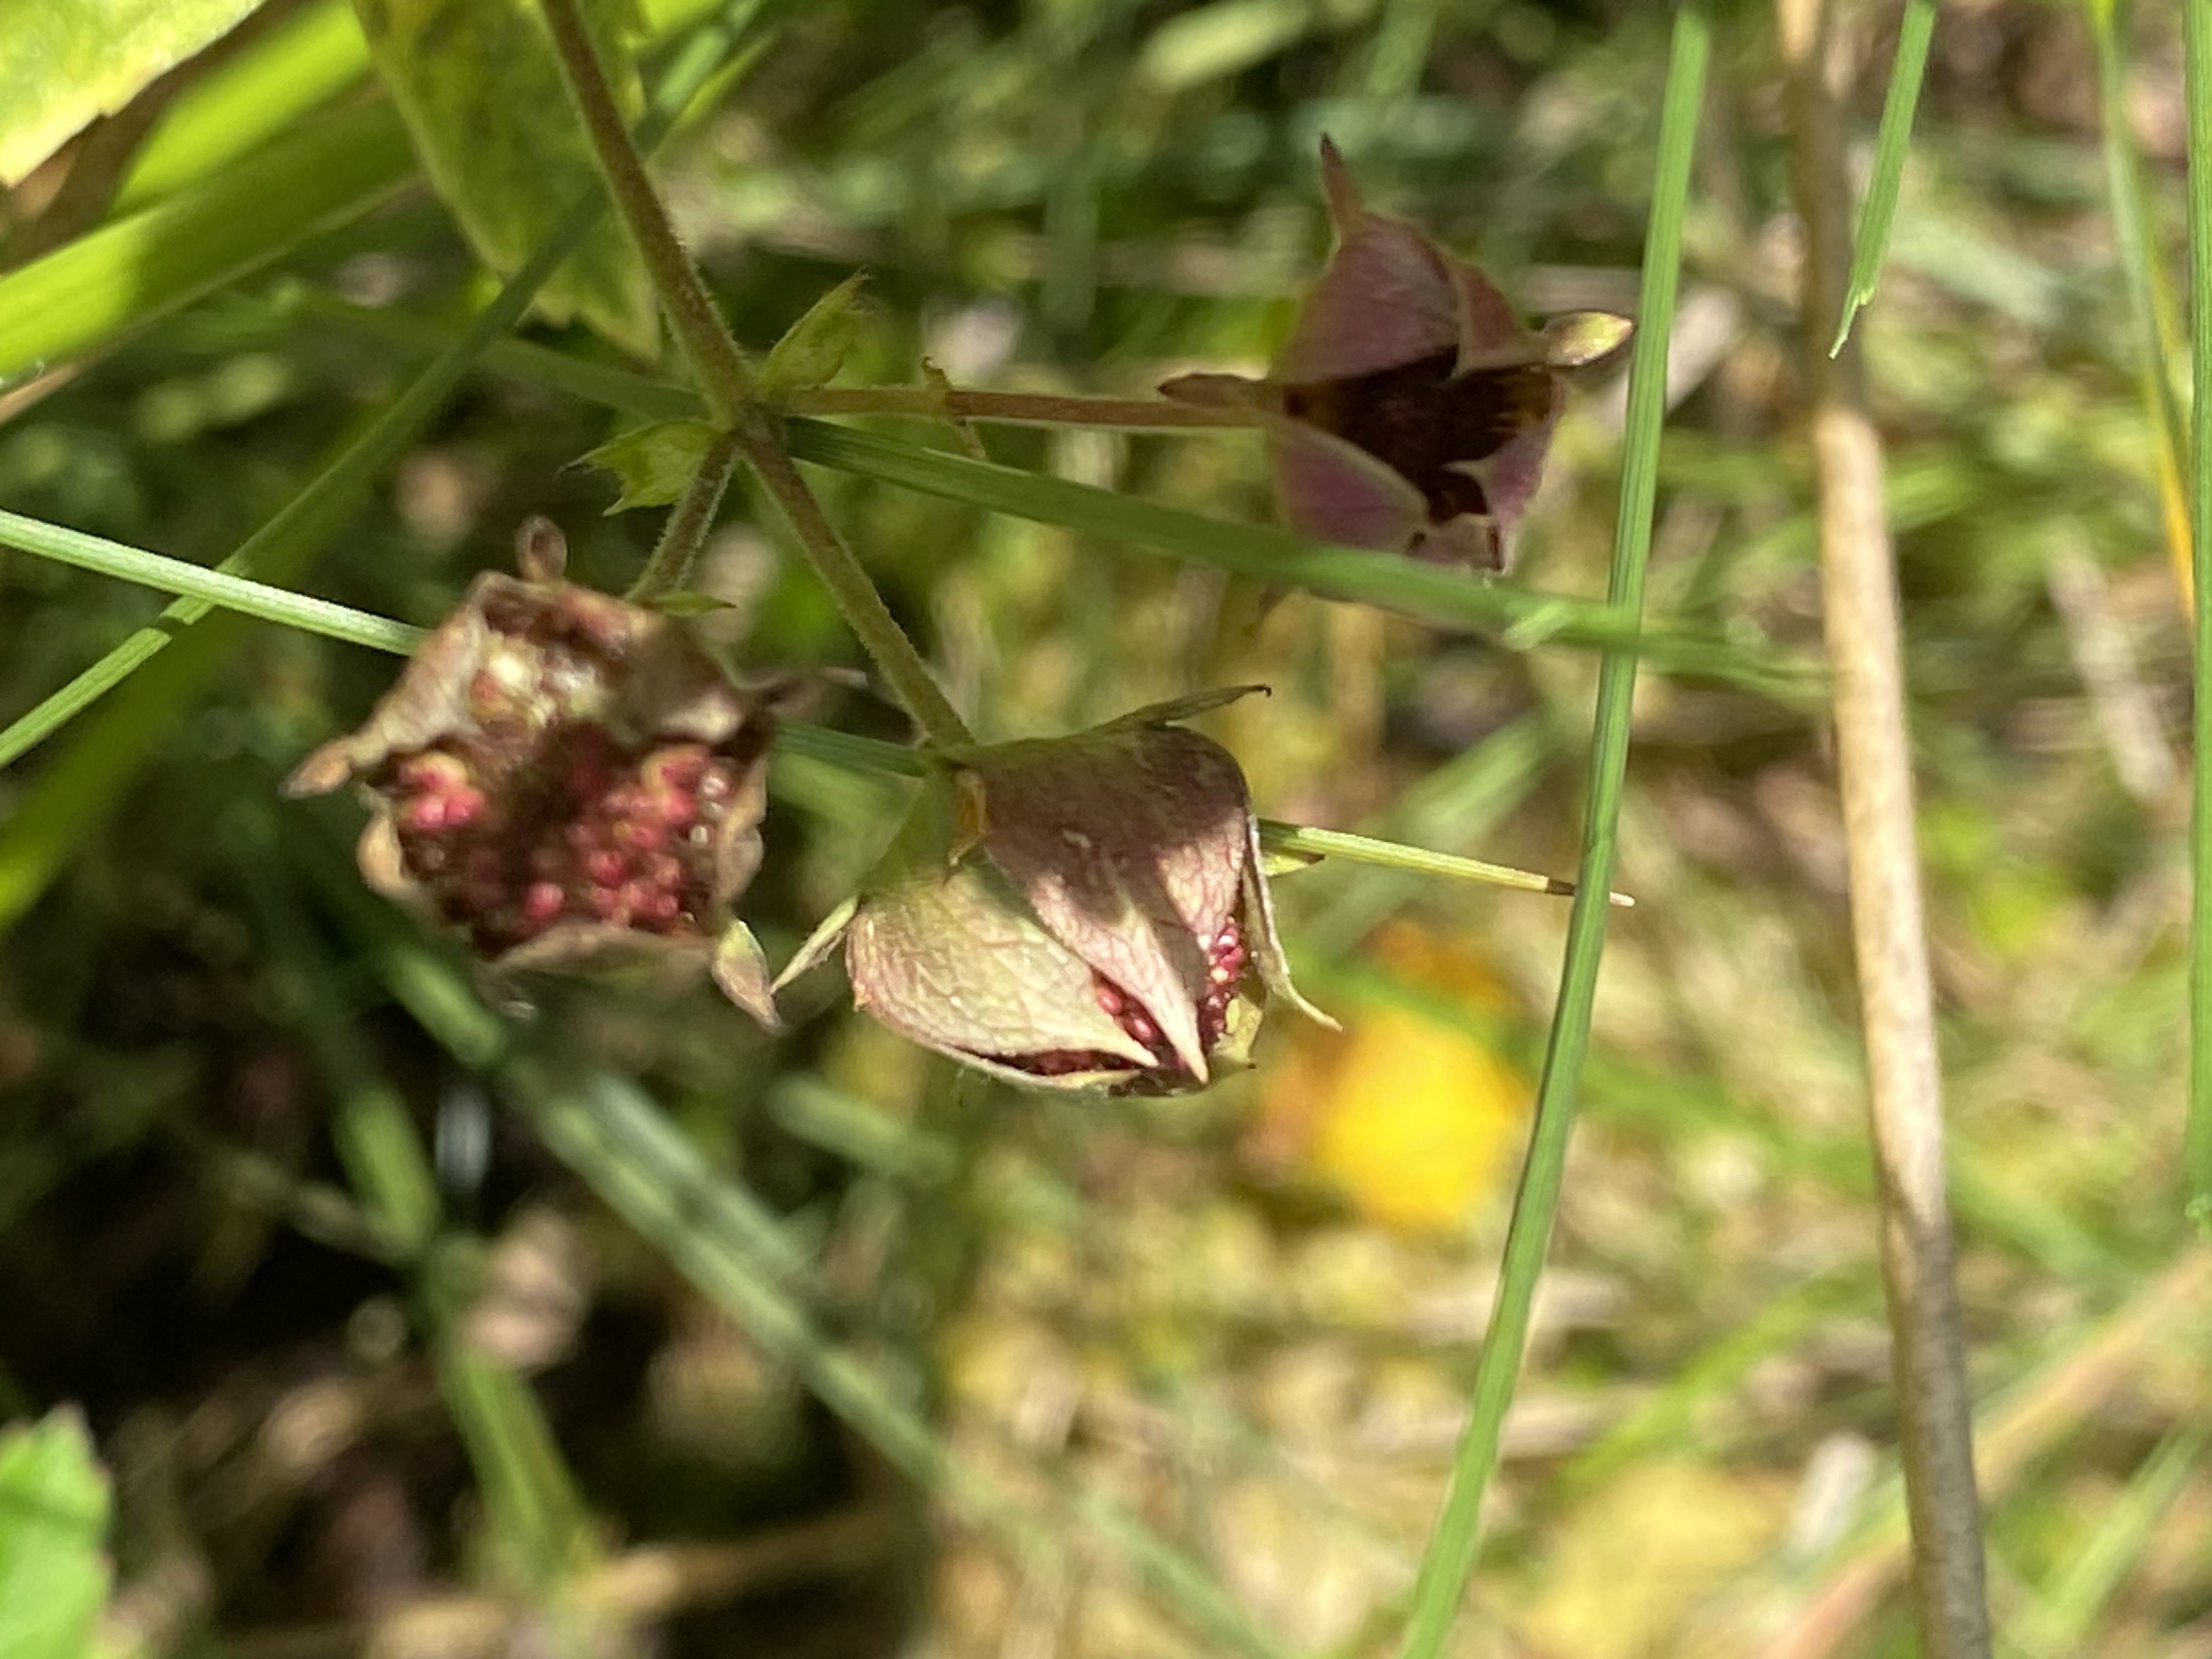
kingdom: Plantae
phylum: Tracheophyta
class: Magnoliopsida
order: Rosales
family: Rosaceae
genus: Comarum
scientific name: Comarum palustre
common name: Kragefod
